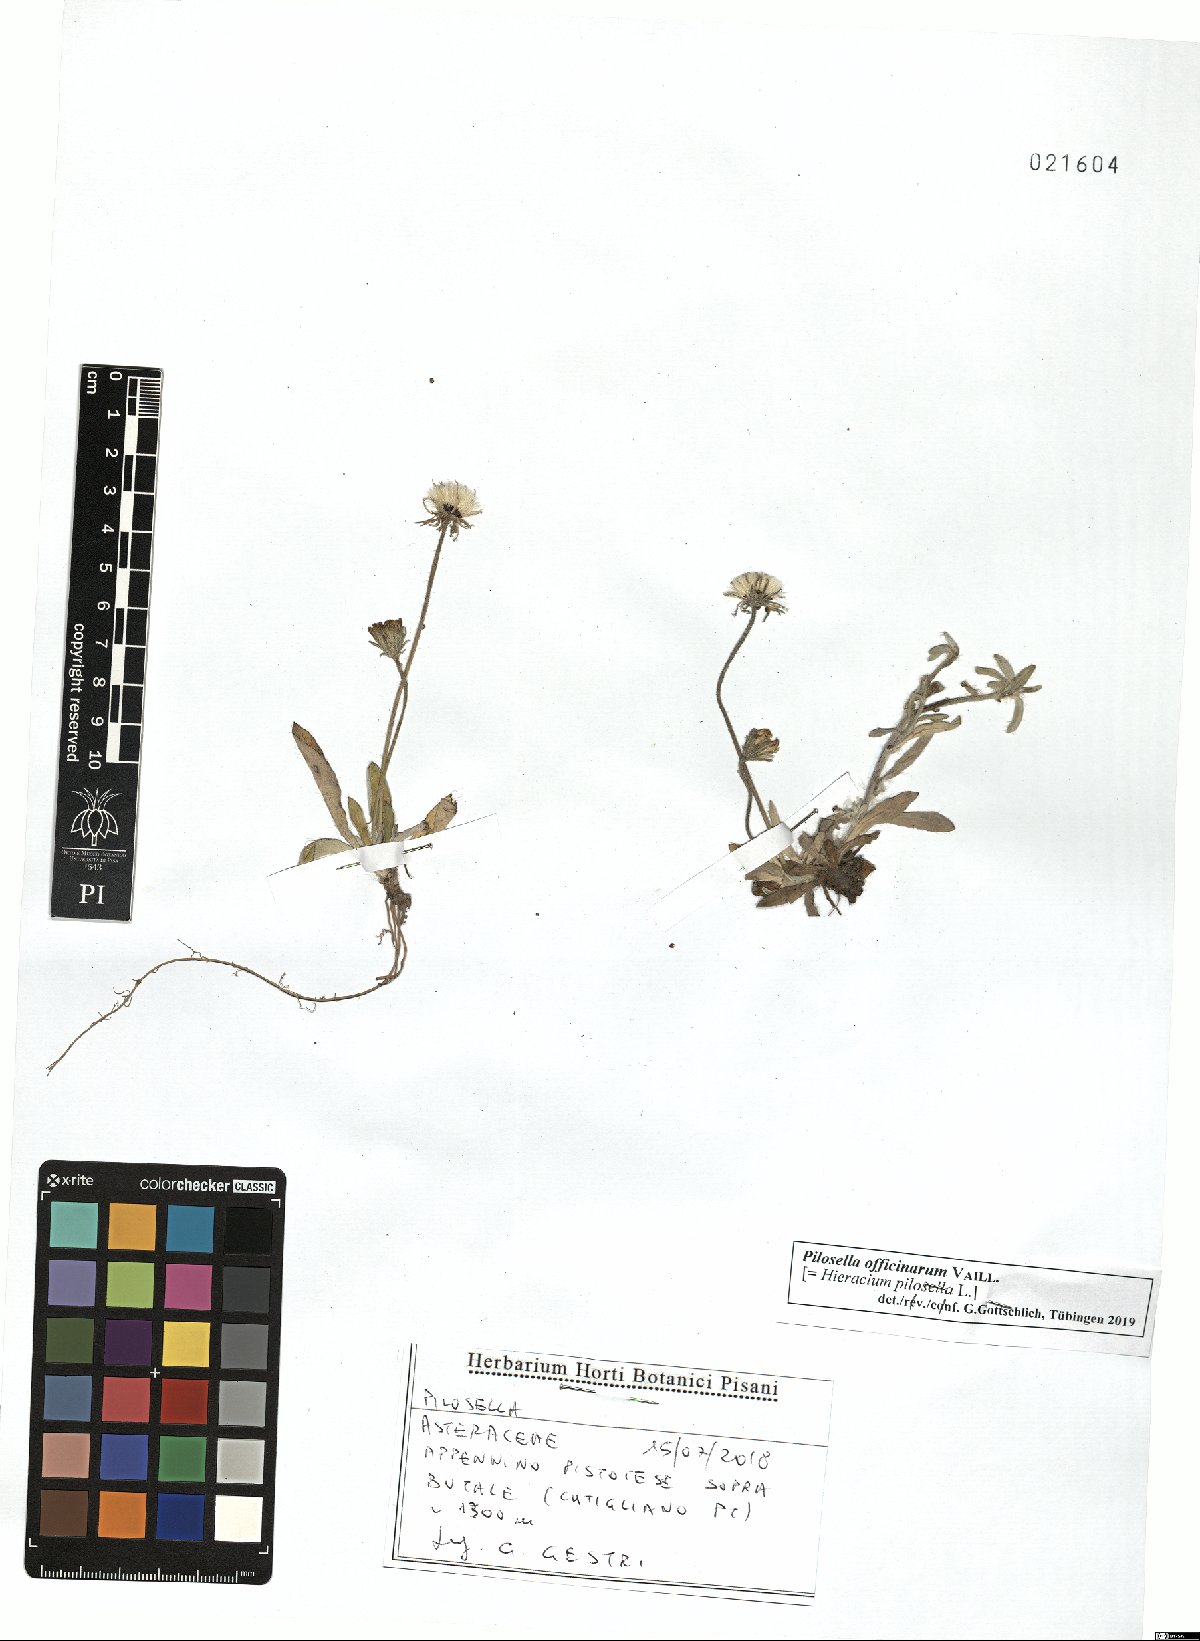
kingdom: Plantae
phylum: Tracheophyta
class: Magnoliopsida
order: Asterales
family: Asteraceae
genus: Pilosella
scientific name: Pilosella officinarum
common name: Mouse-ear hawkweed
